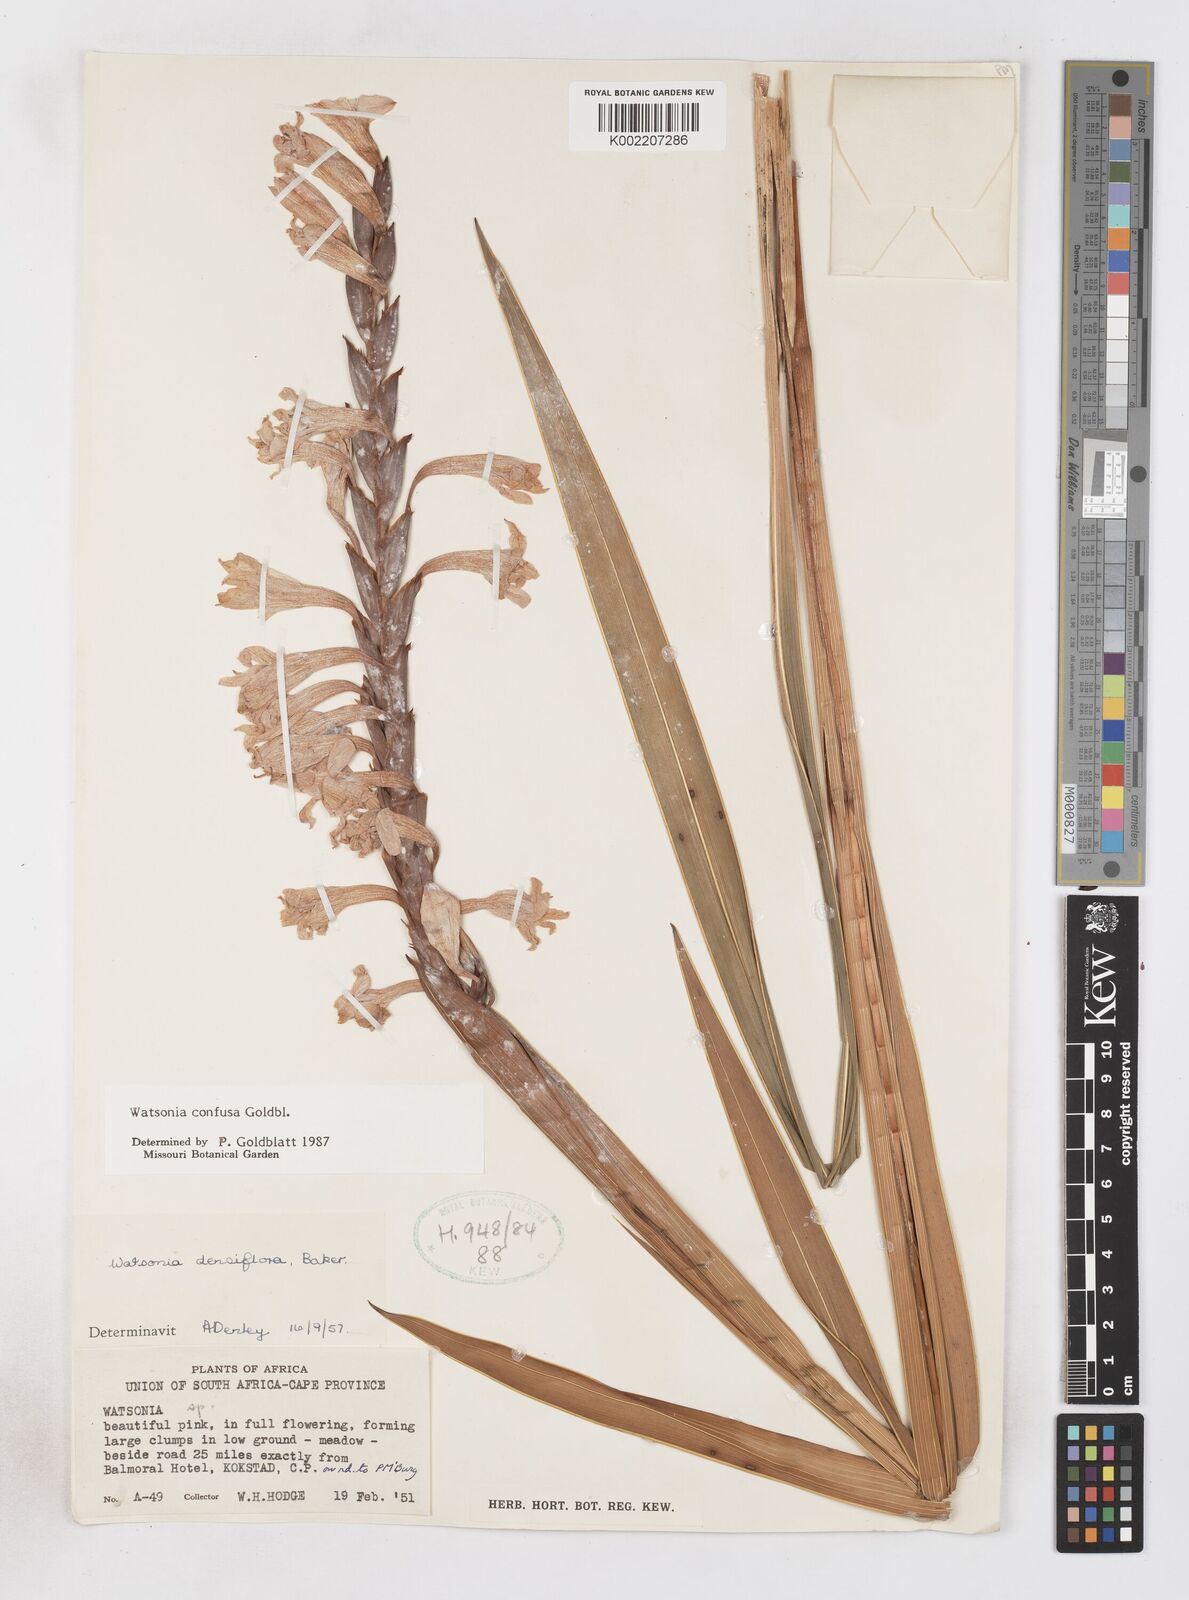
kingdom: Plantae
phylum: Tracheophyta
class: Liliopsida
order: Asparagales
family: Iridaceae
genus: Watsonia
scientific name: Watsonia confusa
